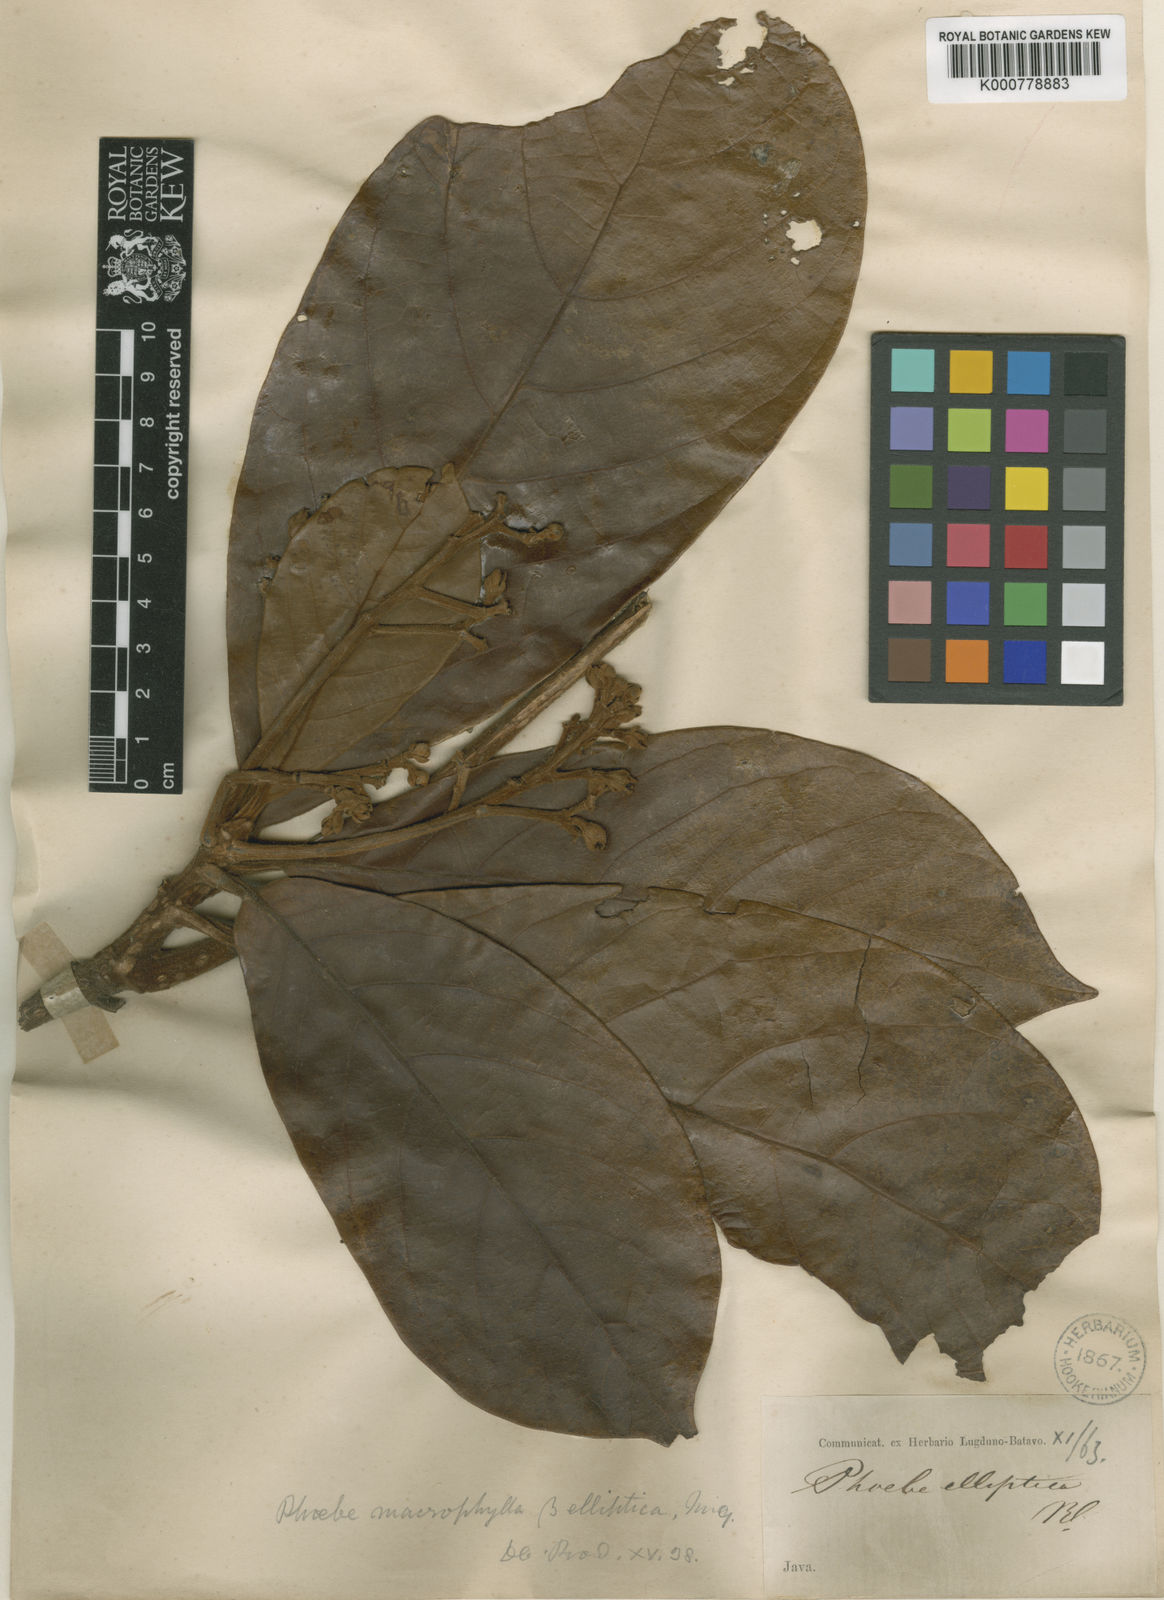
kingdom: Plantae
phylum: Tracheophyta
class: Magnoliopsida
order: Laurales
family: Lauraceae
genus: Phoebe
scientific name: Phoebe macrophylla
